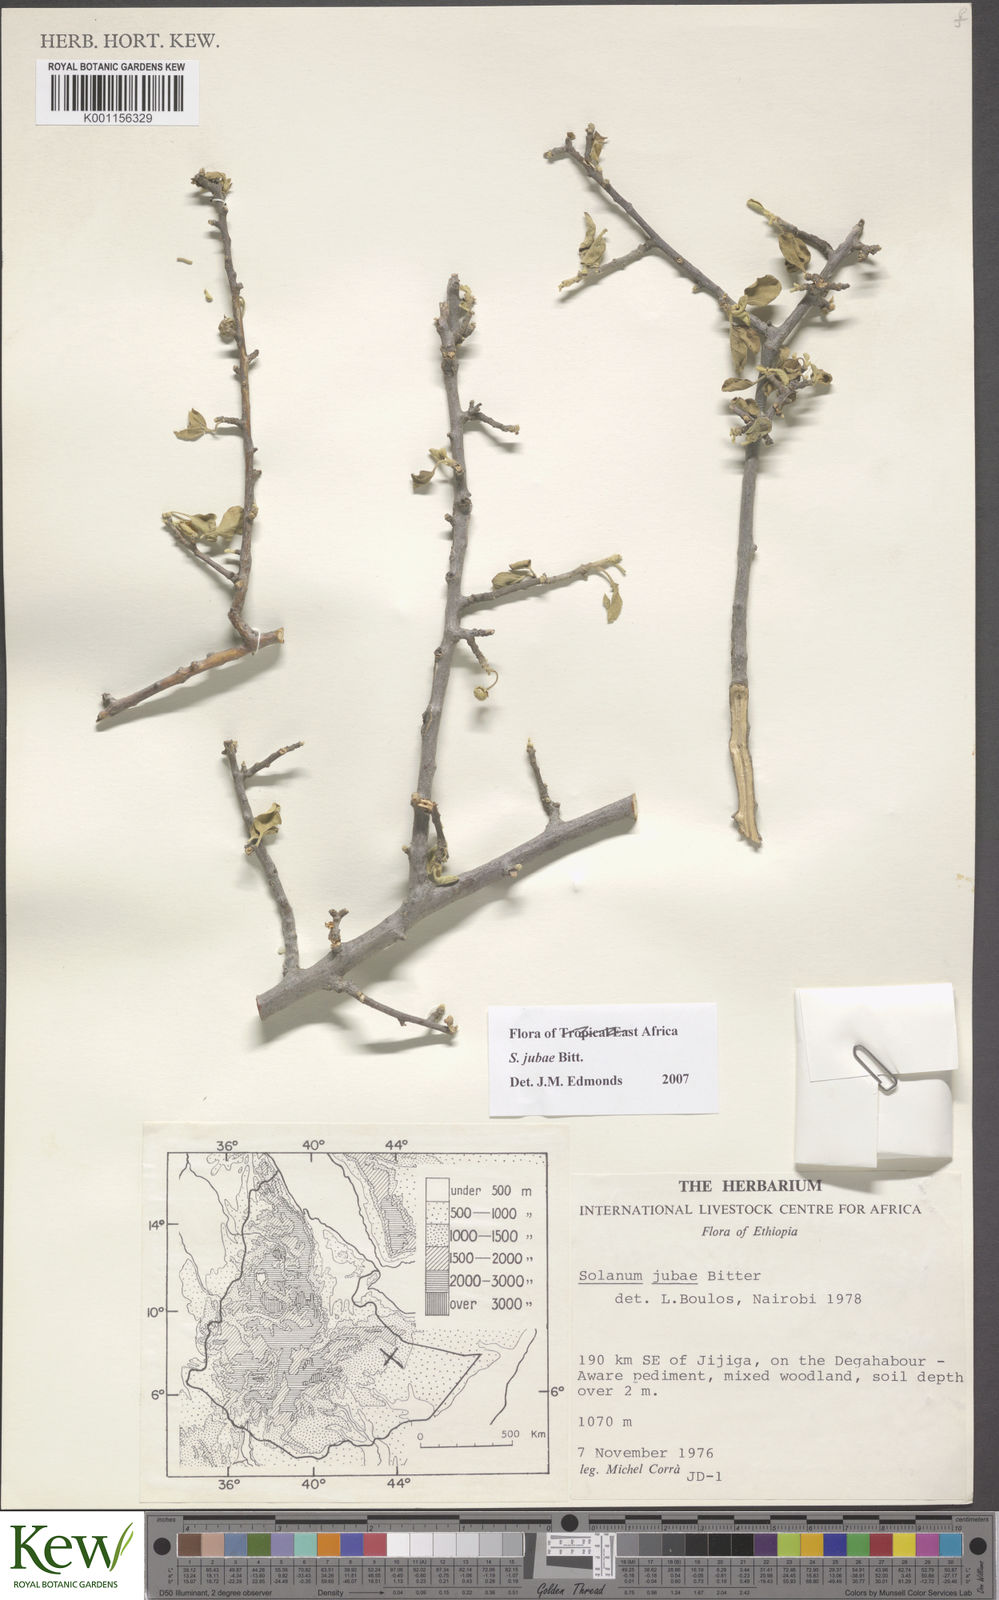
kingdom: Plantae
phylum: Tracheophyta
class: Magnoliopsida
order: Solanales
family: Solanaceae
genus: Solanum
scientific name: Solanum jubae
